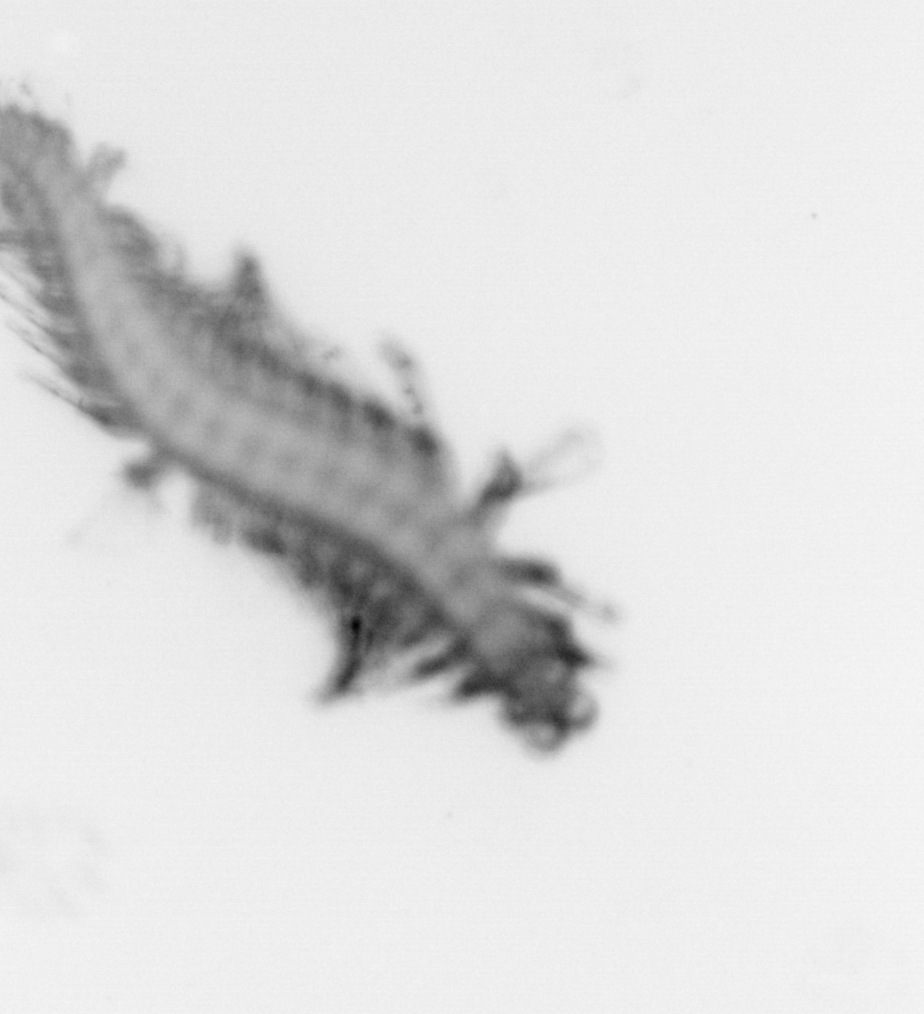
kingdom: Animalia
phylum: Annelida
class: Polychaeta
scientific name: Polychaeta
